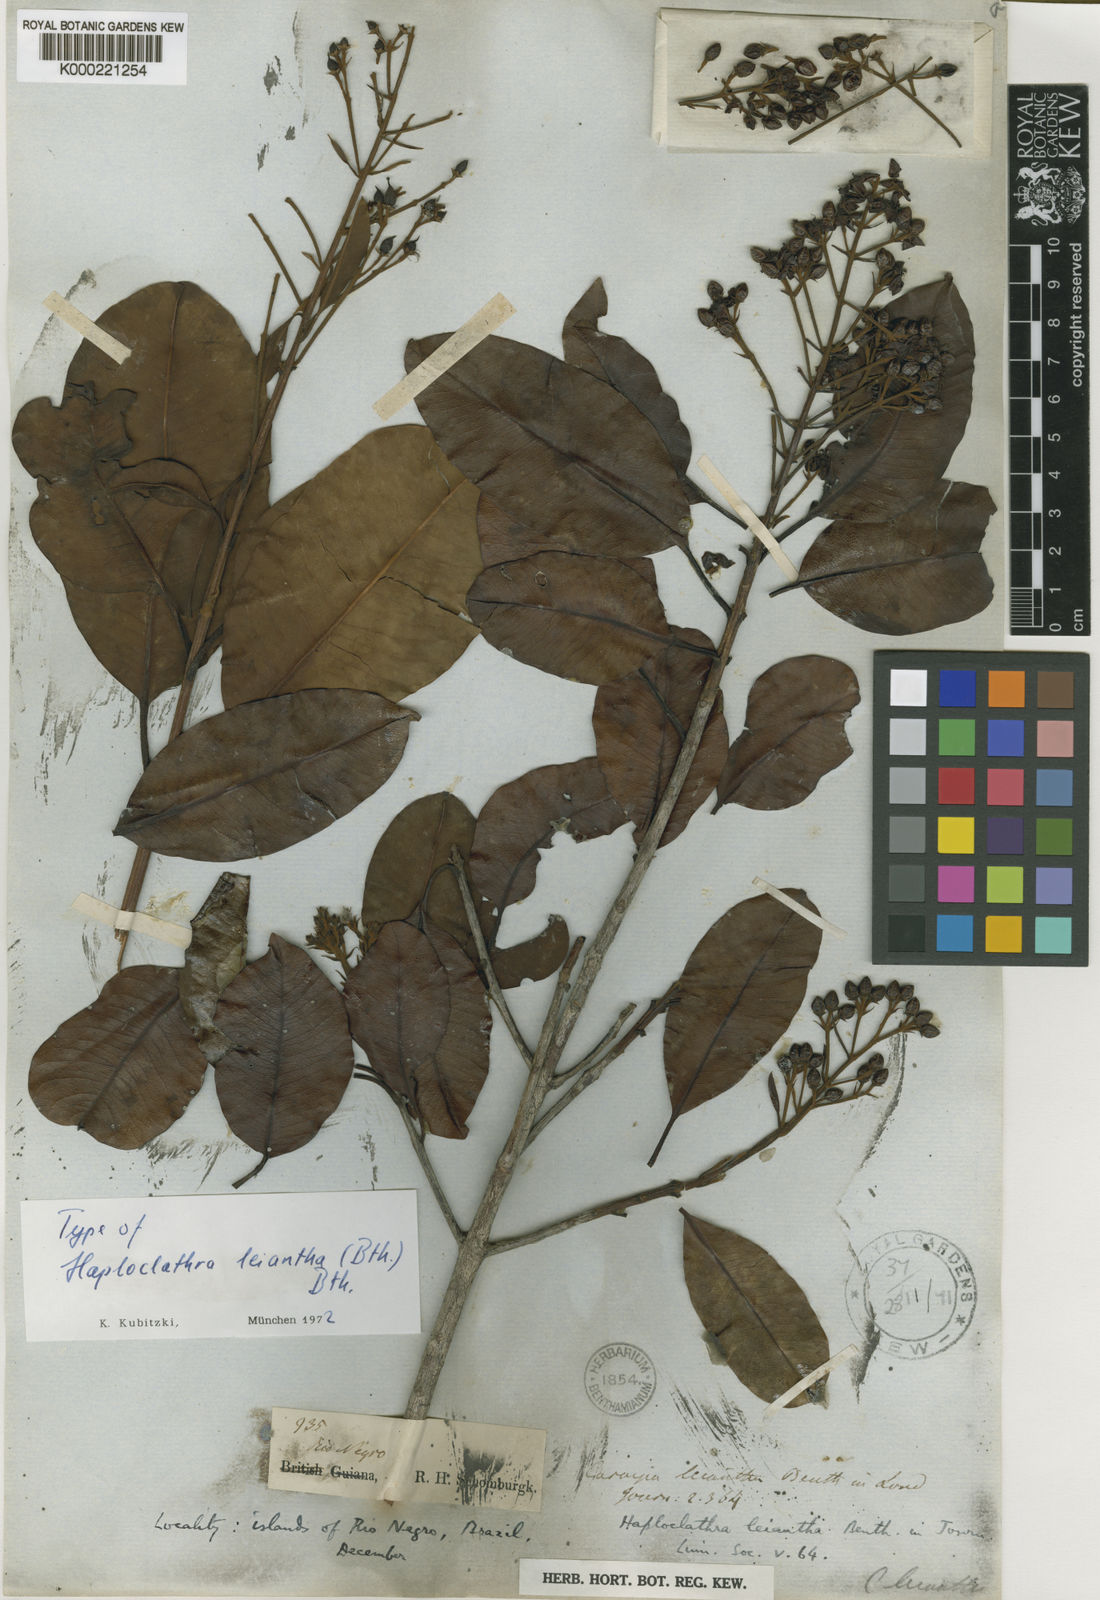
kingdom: Plantae
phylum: Tracheophyta
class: Magnoliopsida
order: Malpighiales
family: Calophyllaceae
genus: Haploclathra
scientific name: Haploclathra leiantha
